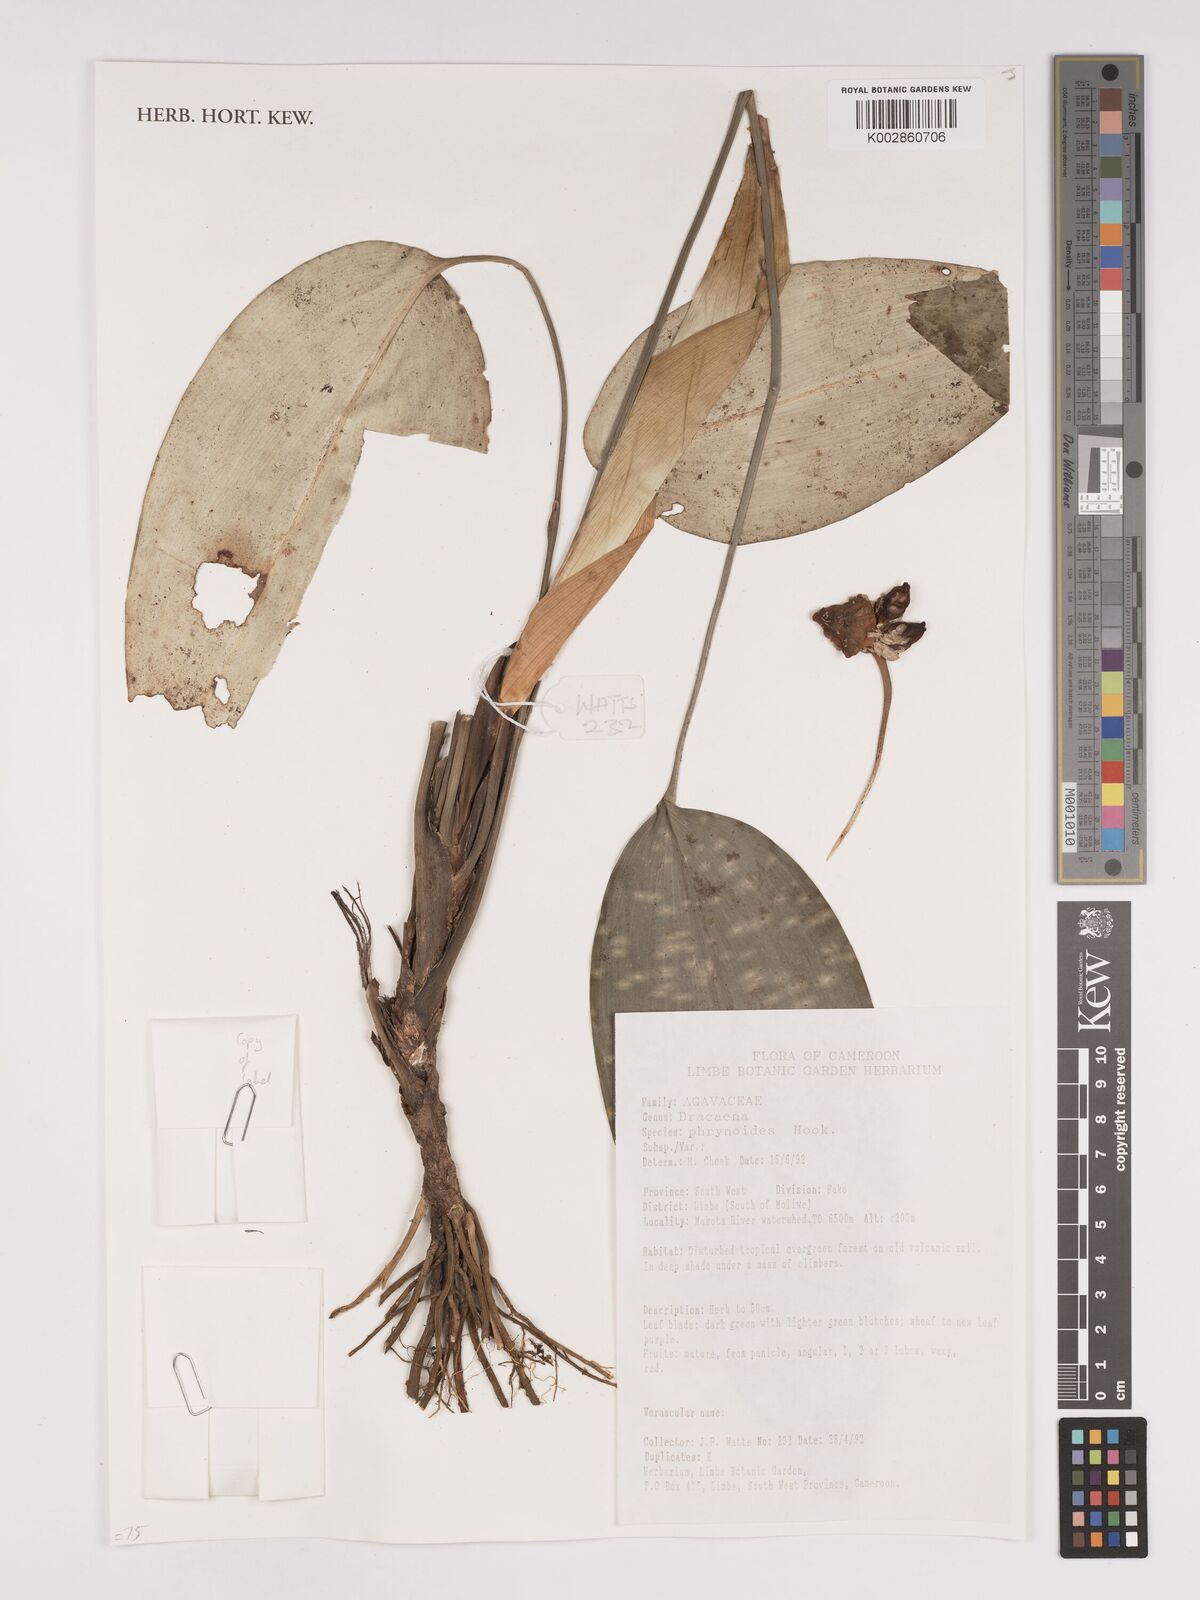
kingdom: Plantae
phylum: Tracheophyta
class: Liliopsida
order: Asparagales
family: Asparagaceae
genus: Dracaena
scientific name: Dracaena phrynioides
